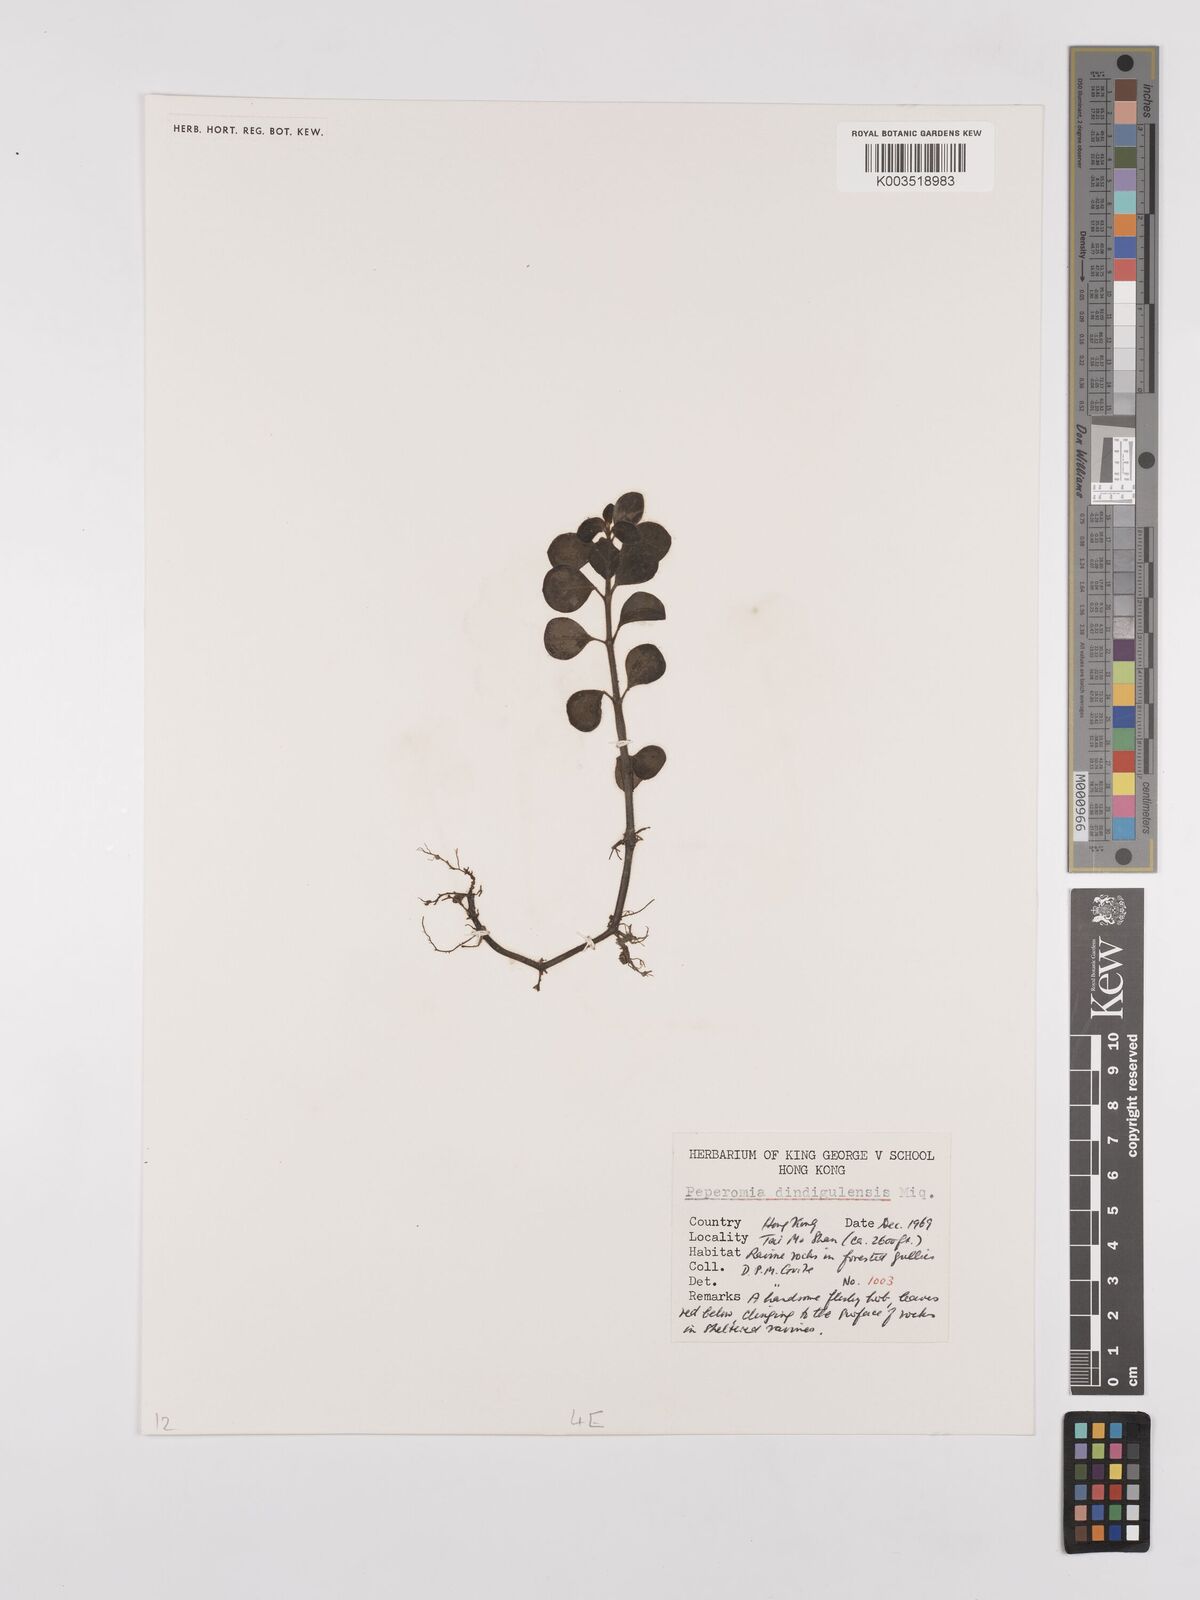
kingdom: Plantae
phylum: Tracheophyta
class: Magnoliopsida
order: Piperales
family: Piperaceae
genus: Peperomia
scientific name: Peperomia leptostachya
